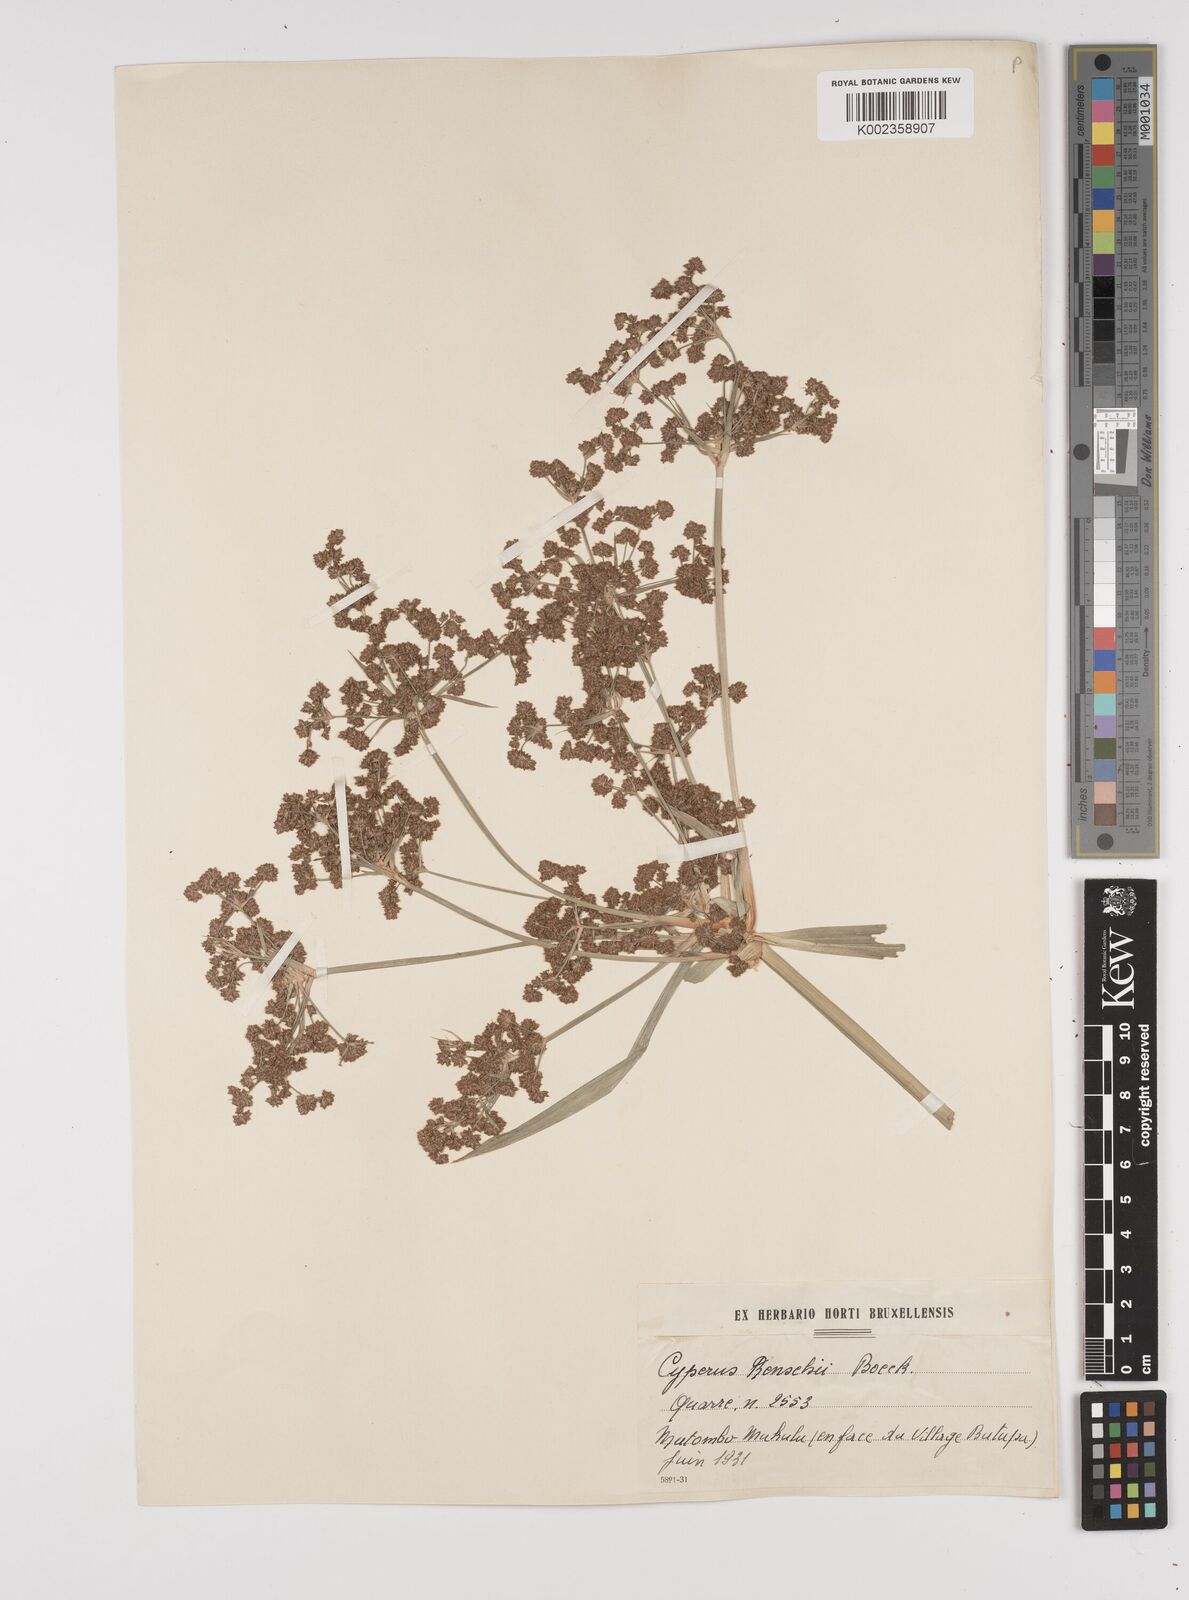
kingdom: Plantae
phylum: Tracheophyta
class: Liliopsida
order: Poales
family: Cyperaceae
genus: Cyperus
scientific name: Cyperus renschii
